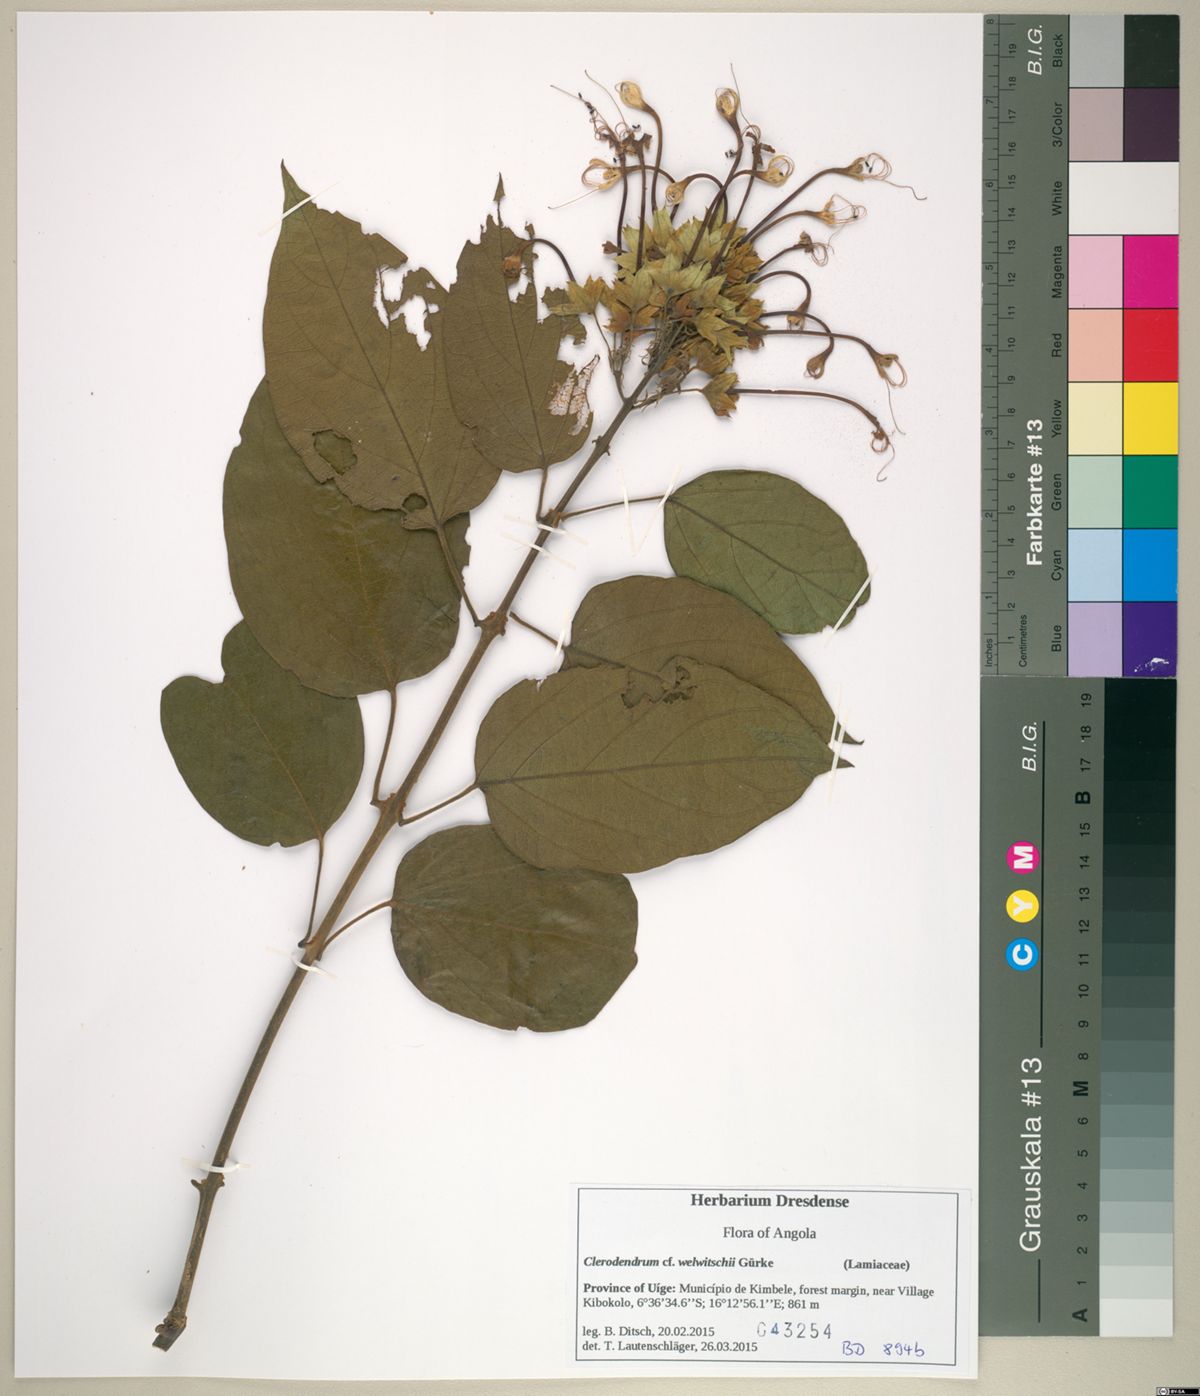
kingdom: Plantae
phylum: Tracheophyta
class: Magnoliopsida
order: Lamiales
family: Lamiaceae
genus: Clerodendrum
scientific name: Clerodendrum welwitschii
